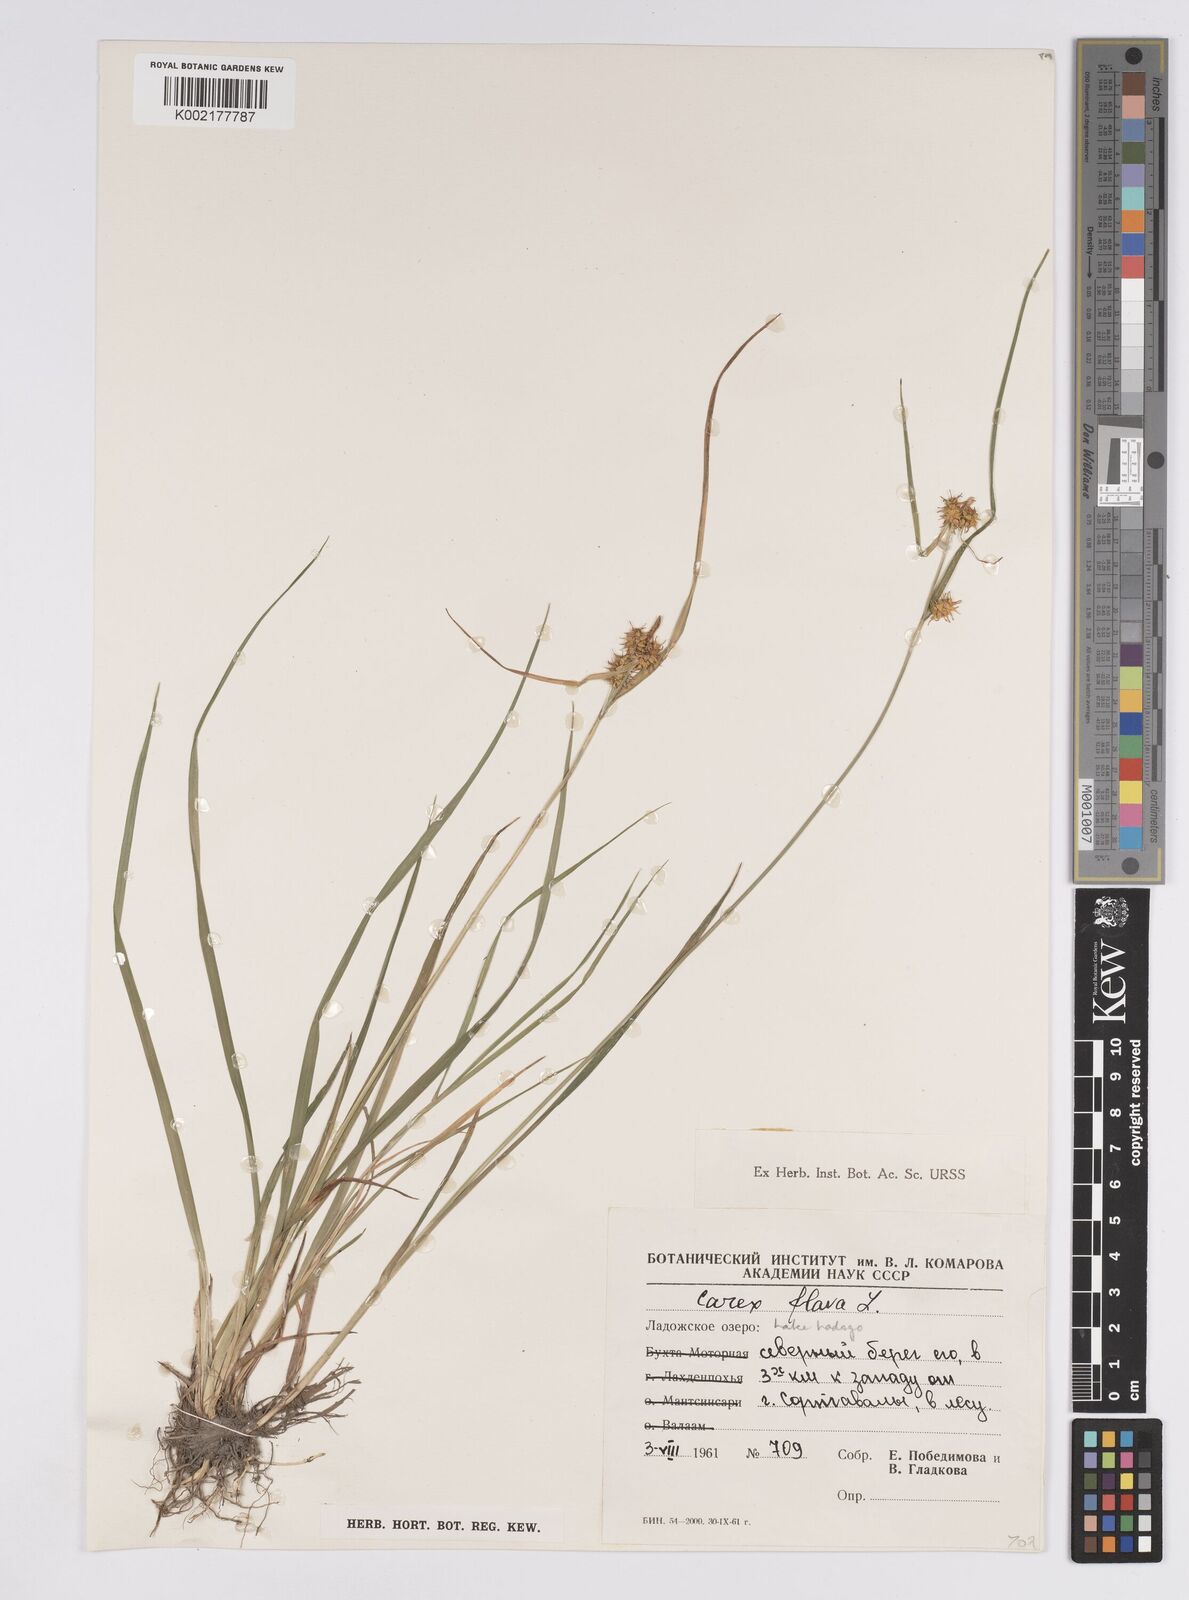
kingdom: Plantae
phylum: Tracheophyta
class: Liliopsida
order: Poales
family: Cyperaceae
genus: Carex
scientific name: Carex flava
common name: Large yellow-sedge
